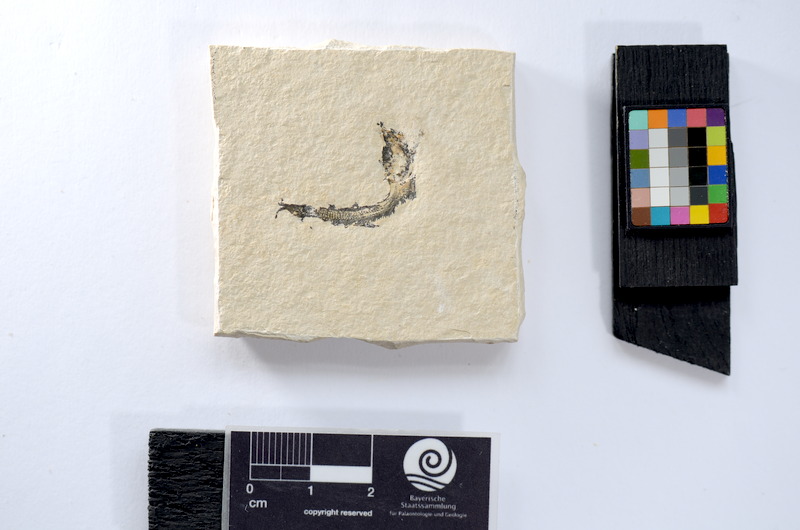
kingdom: Animalia
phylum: Chordata
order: Salmoniformes
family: Orthogonikleithridae
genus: Leptolepides
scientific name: Leptolepides
